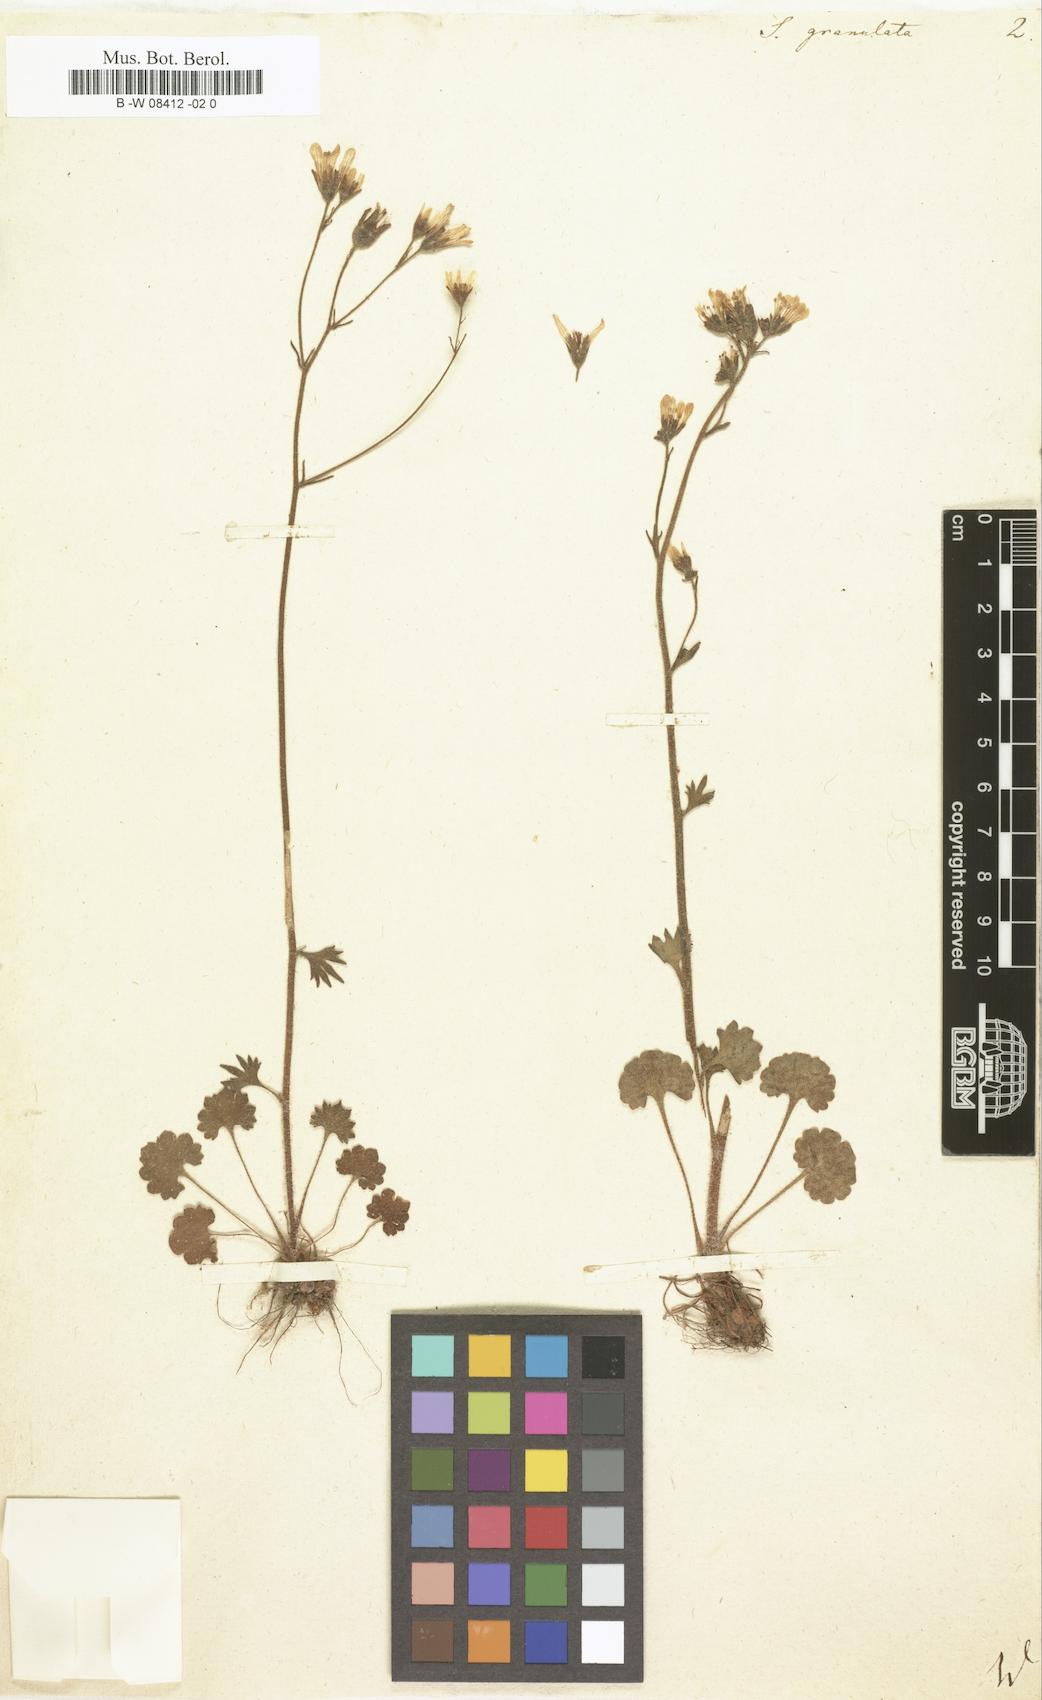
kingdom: Plantae
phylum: Tracheophyta
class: Magnoliopsida
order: Saxifragales
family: Saxifragaceae
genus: Saxifraga
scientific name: Saxifraga granulata
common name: Meadow saxifrage
